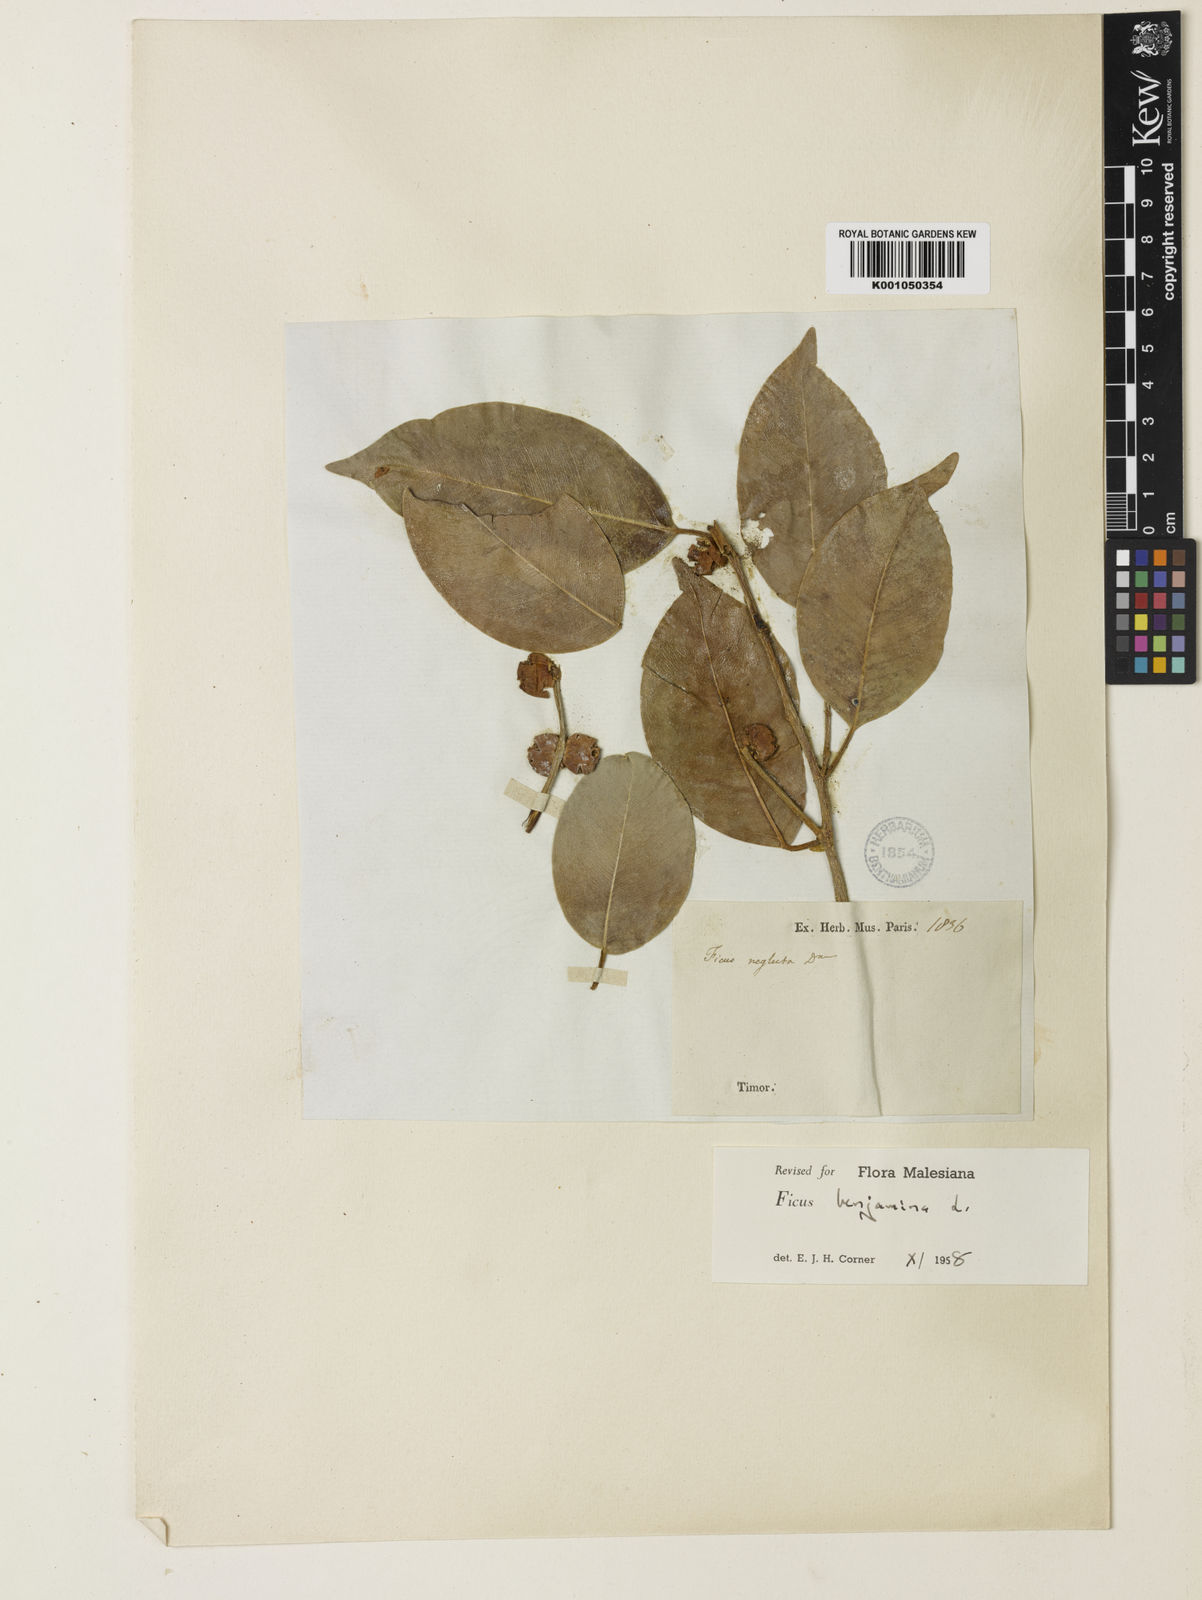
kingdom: Plantae
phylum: Tracheophyta
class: Magnoliopsida
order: Rosales
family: Moraceae
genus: Ficus
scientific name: Ficus benjamina
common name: Weeping fig
